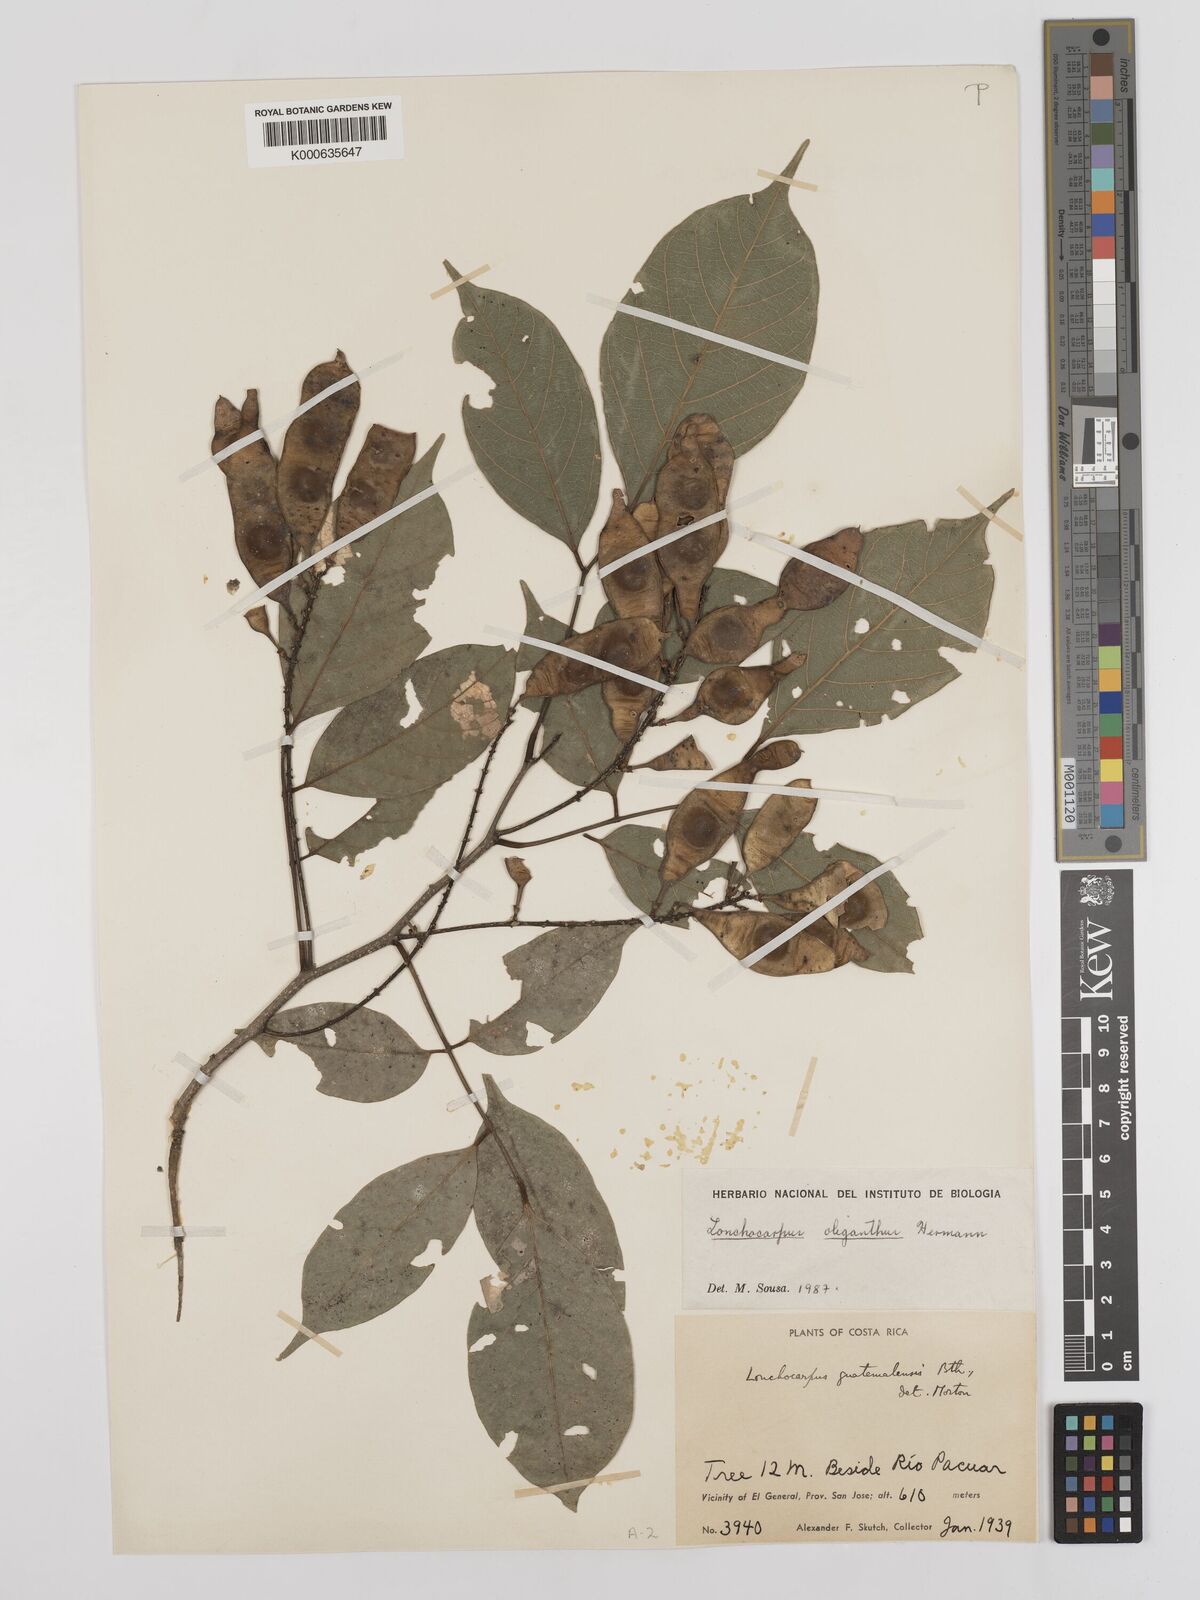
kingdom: Plantae
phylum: Tracheophyta
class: Magnoliopsida
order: Fabales
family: Fabaceae
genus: Lonchocarpus
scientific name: Lonchocarpus oliganthus
